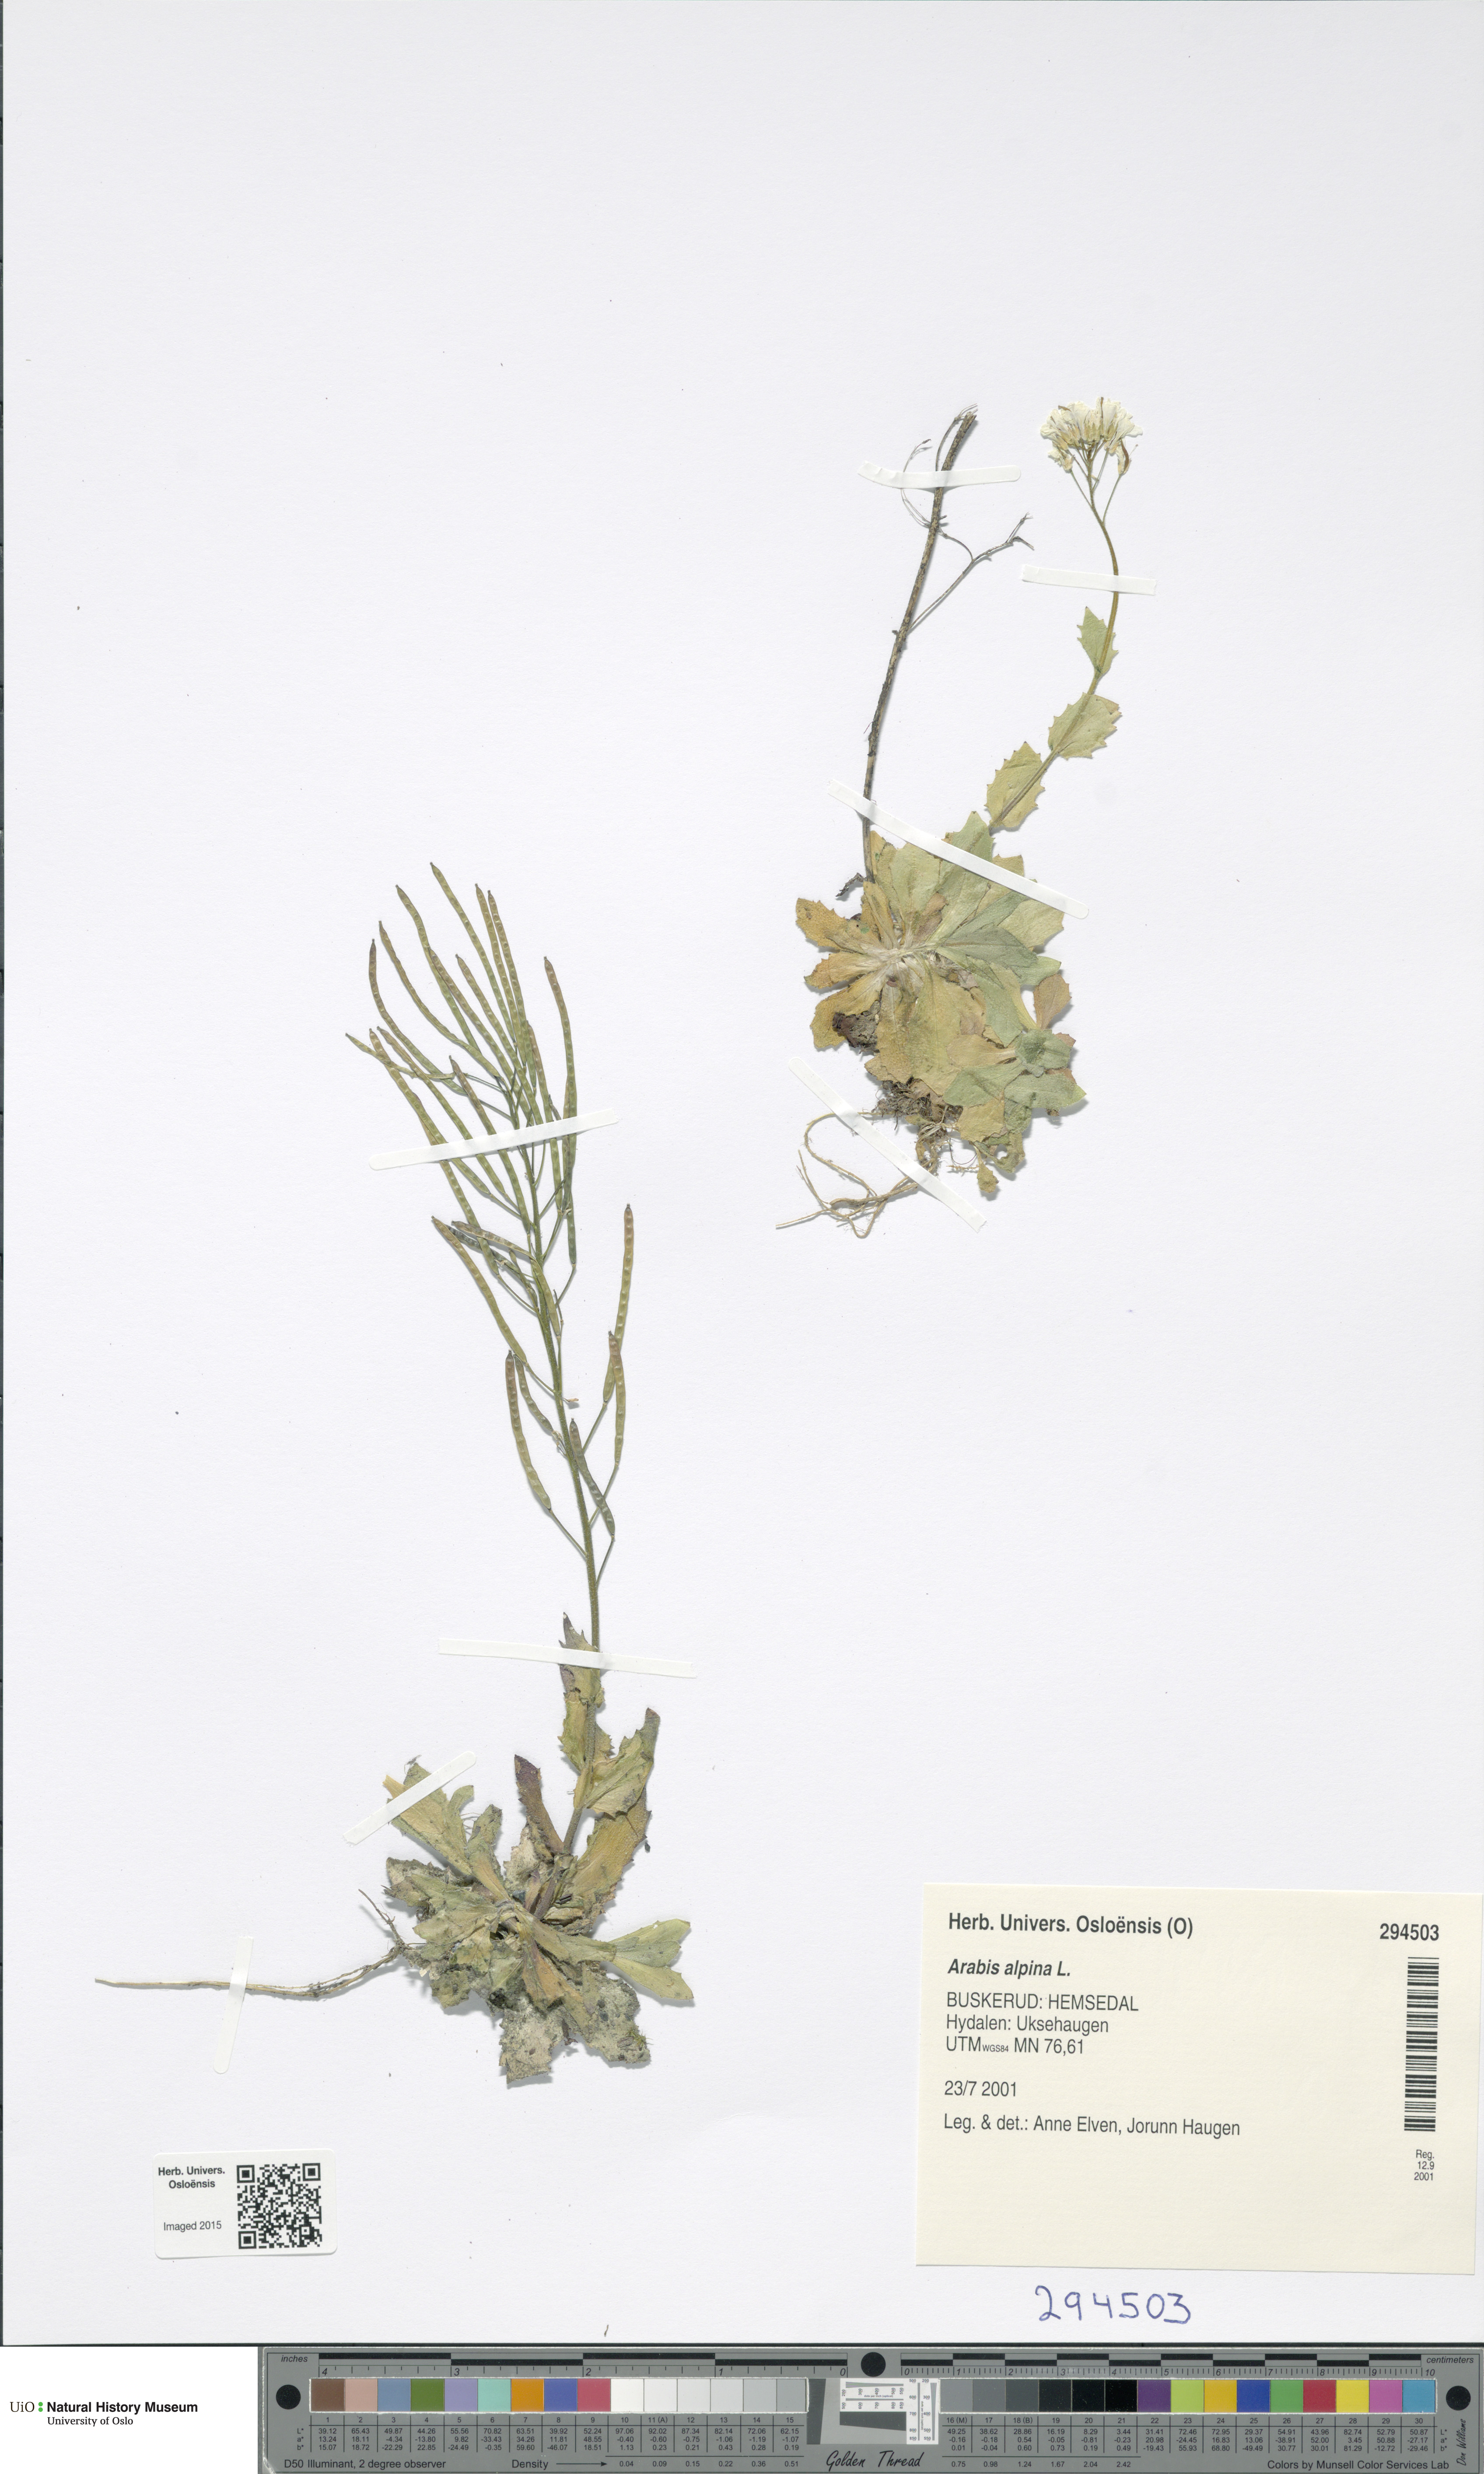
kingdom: Plantae
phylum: Tracheophyta
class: Magnoliopsida
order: Brassicales
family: Brassicaceae
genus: Arabis
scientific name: Arabis alpina
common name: Alpine rock-cress
